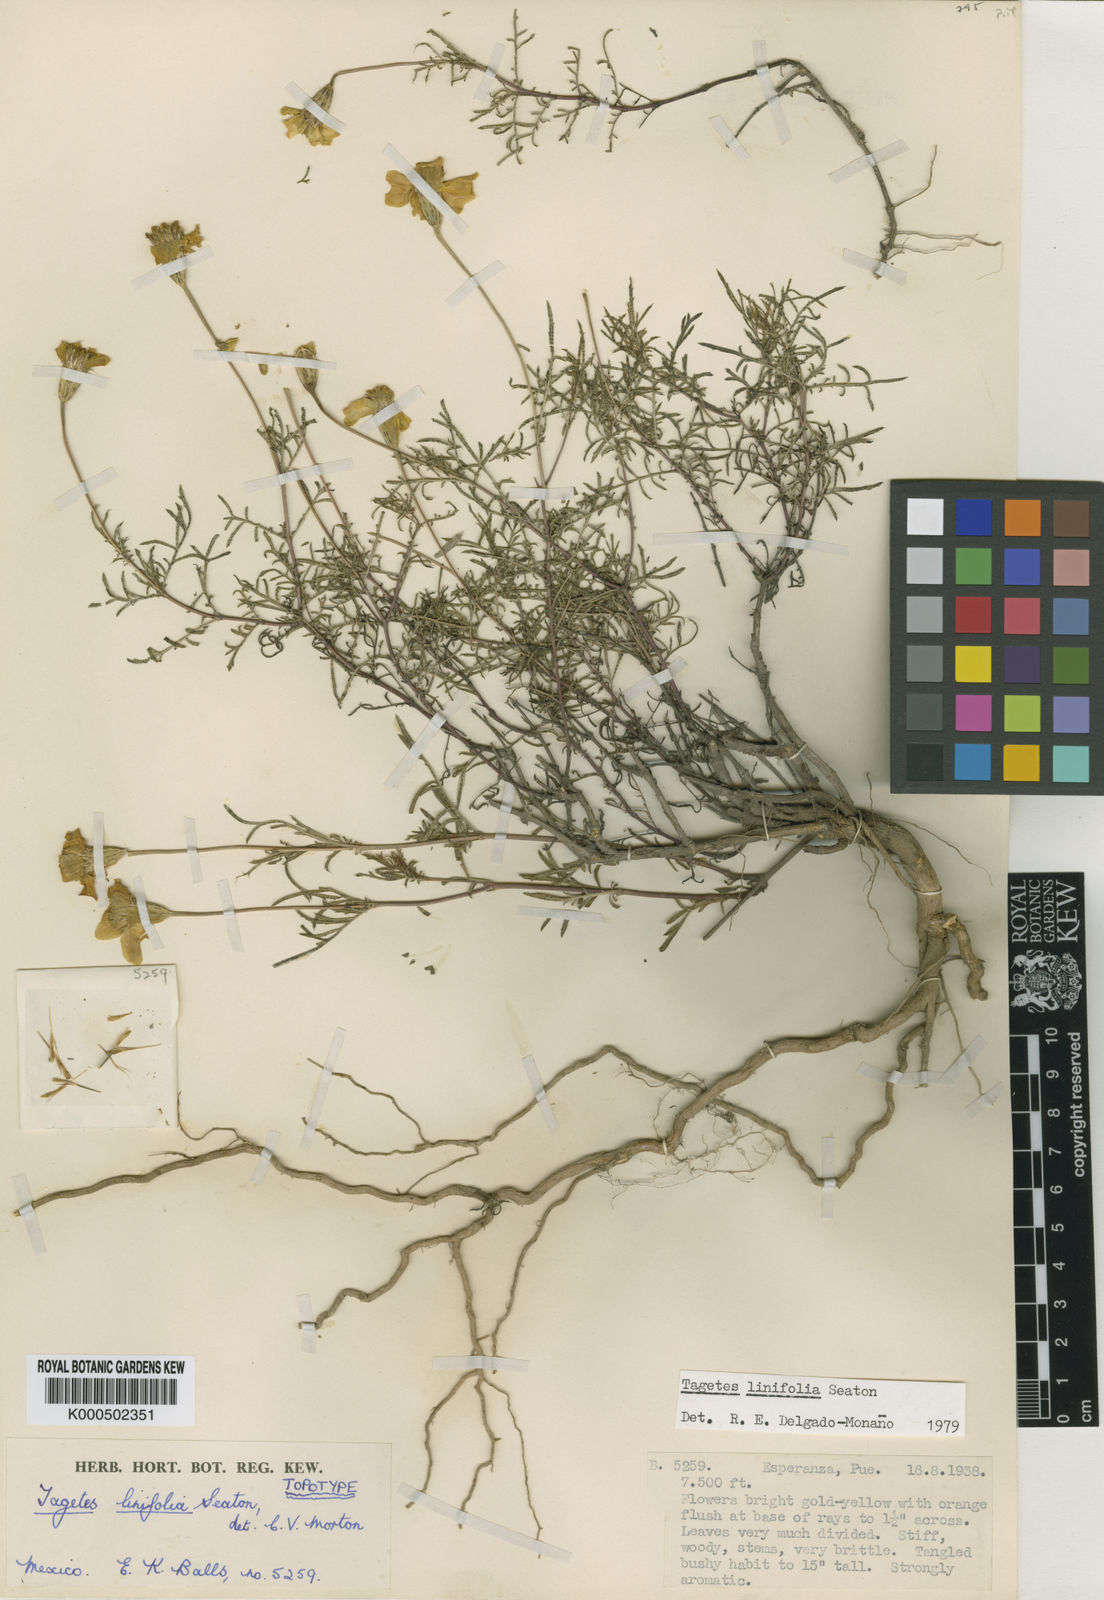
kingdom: Plantae
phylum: Tracheophyta
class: Magnoliopsida
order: Asterales
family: Asteraceae
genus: Tagetes
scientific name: Tagetes linifolia
